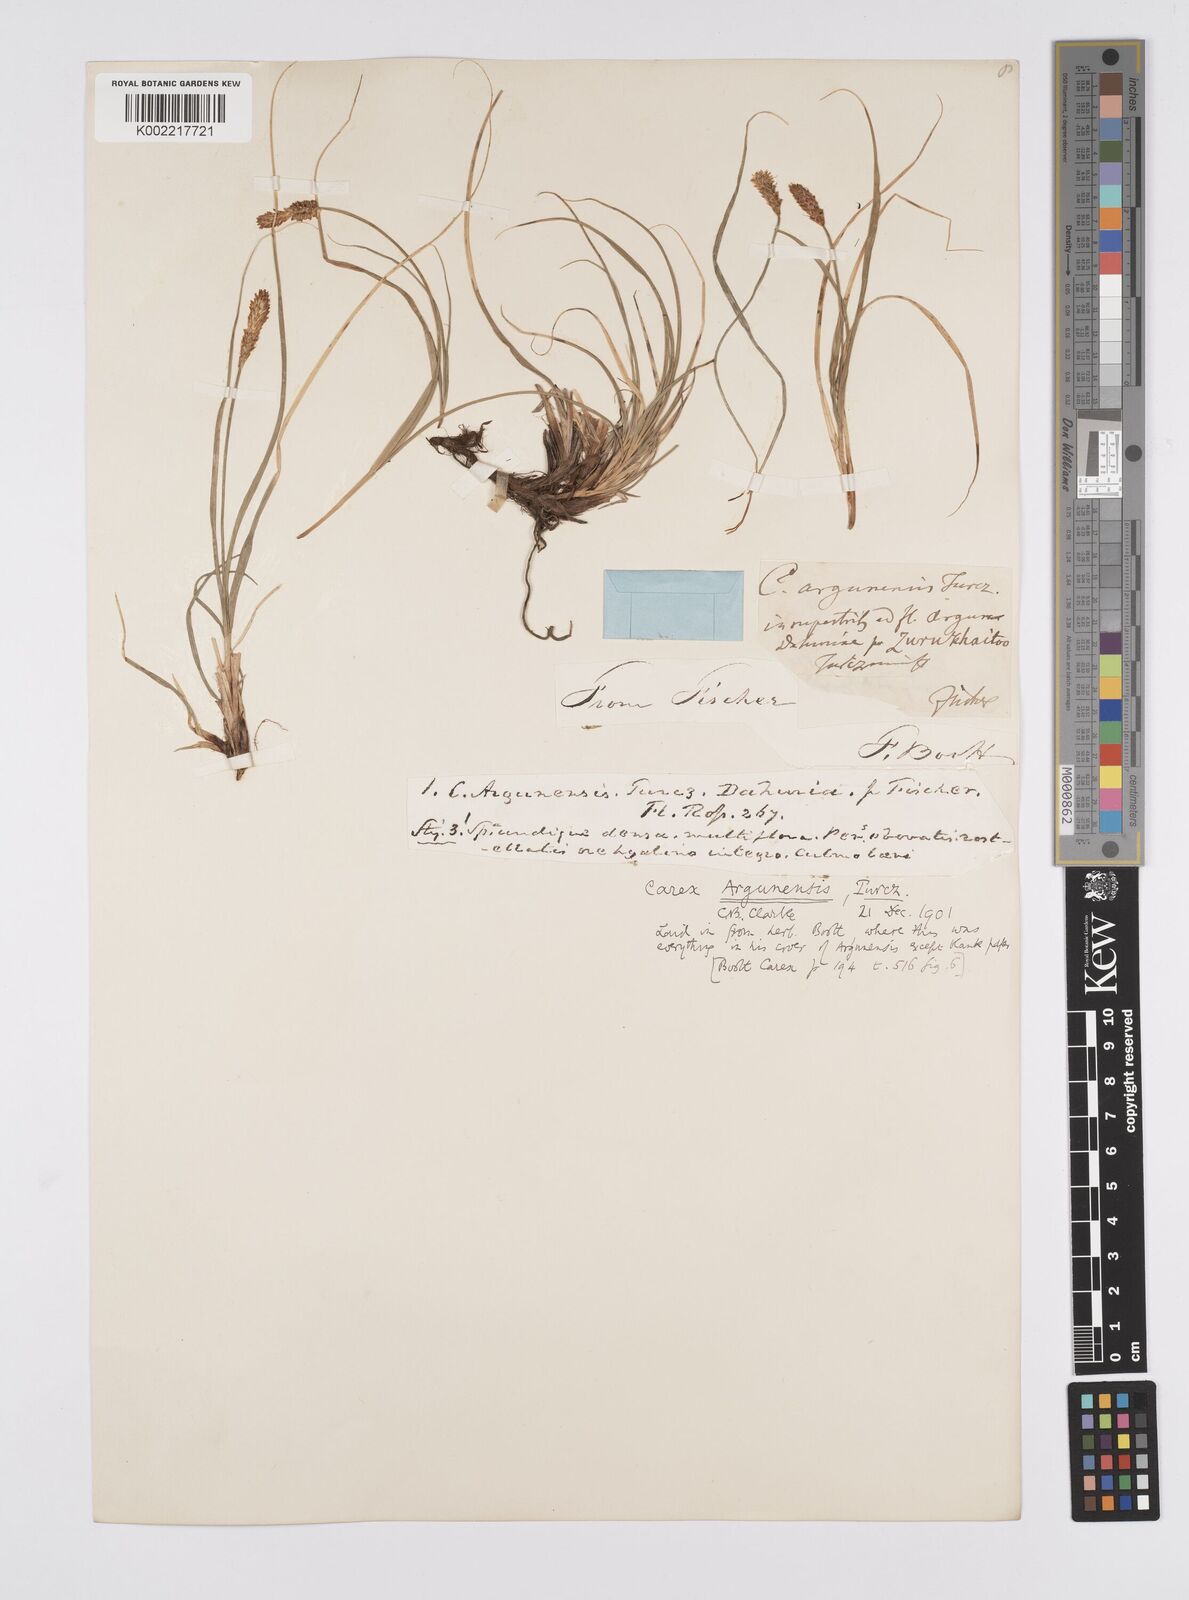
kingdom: Plantae
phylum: Tracheophyta
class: Liliopsida
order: Poales
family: Cyperaceae
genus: Carex
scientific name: Carex argunensis
